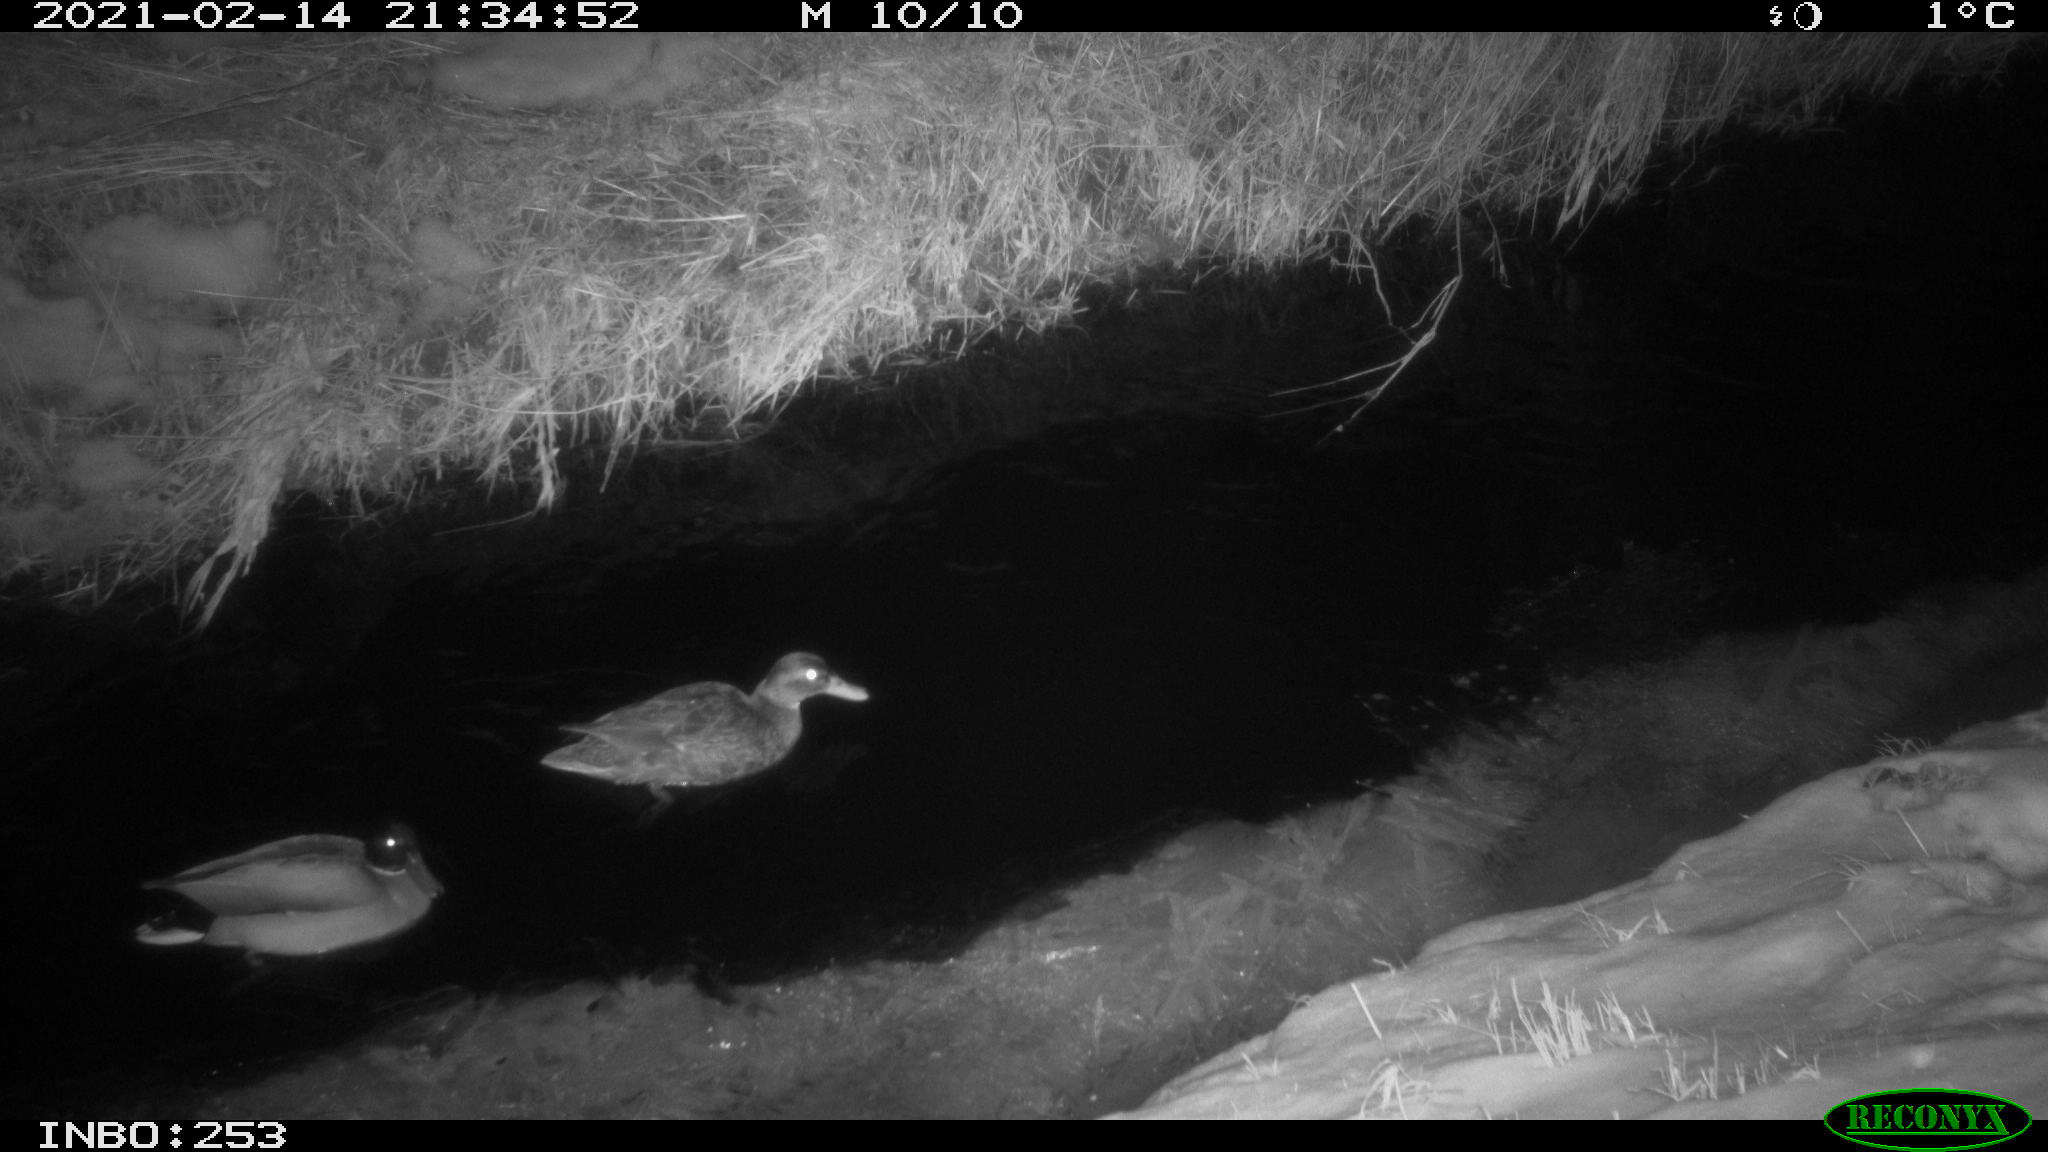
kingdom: Animalia
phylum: Chordata
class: Aves
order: Anseriformes
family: Anatidae
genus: Anas
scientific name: Anas platyrhynchos
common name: Mallard
